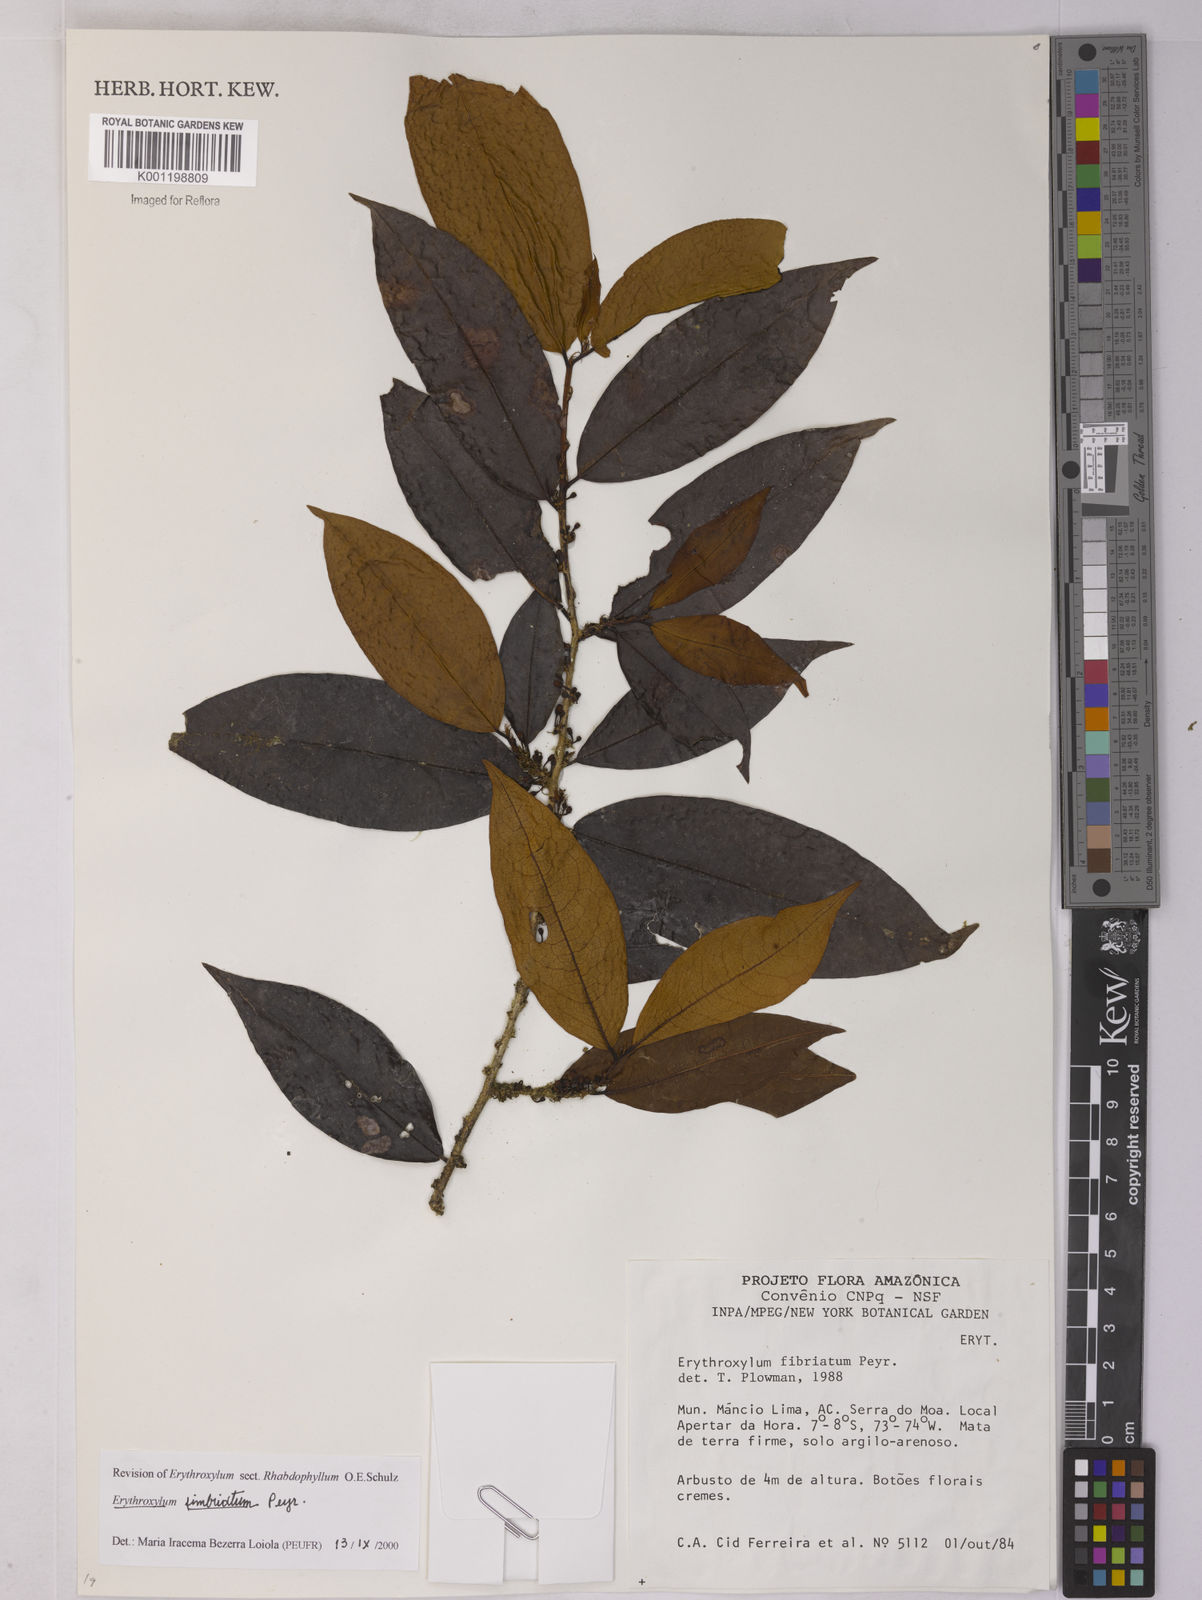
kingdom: Plantae
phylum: Tracheophyta
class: Magnoliopsida
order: Malpighiales
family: Erythroxylaceae
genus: Erythroxylum
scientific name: Erythroxylum fimbriatum
